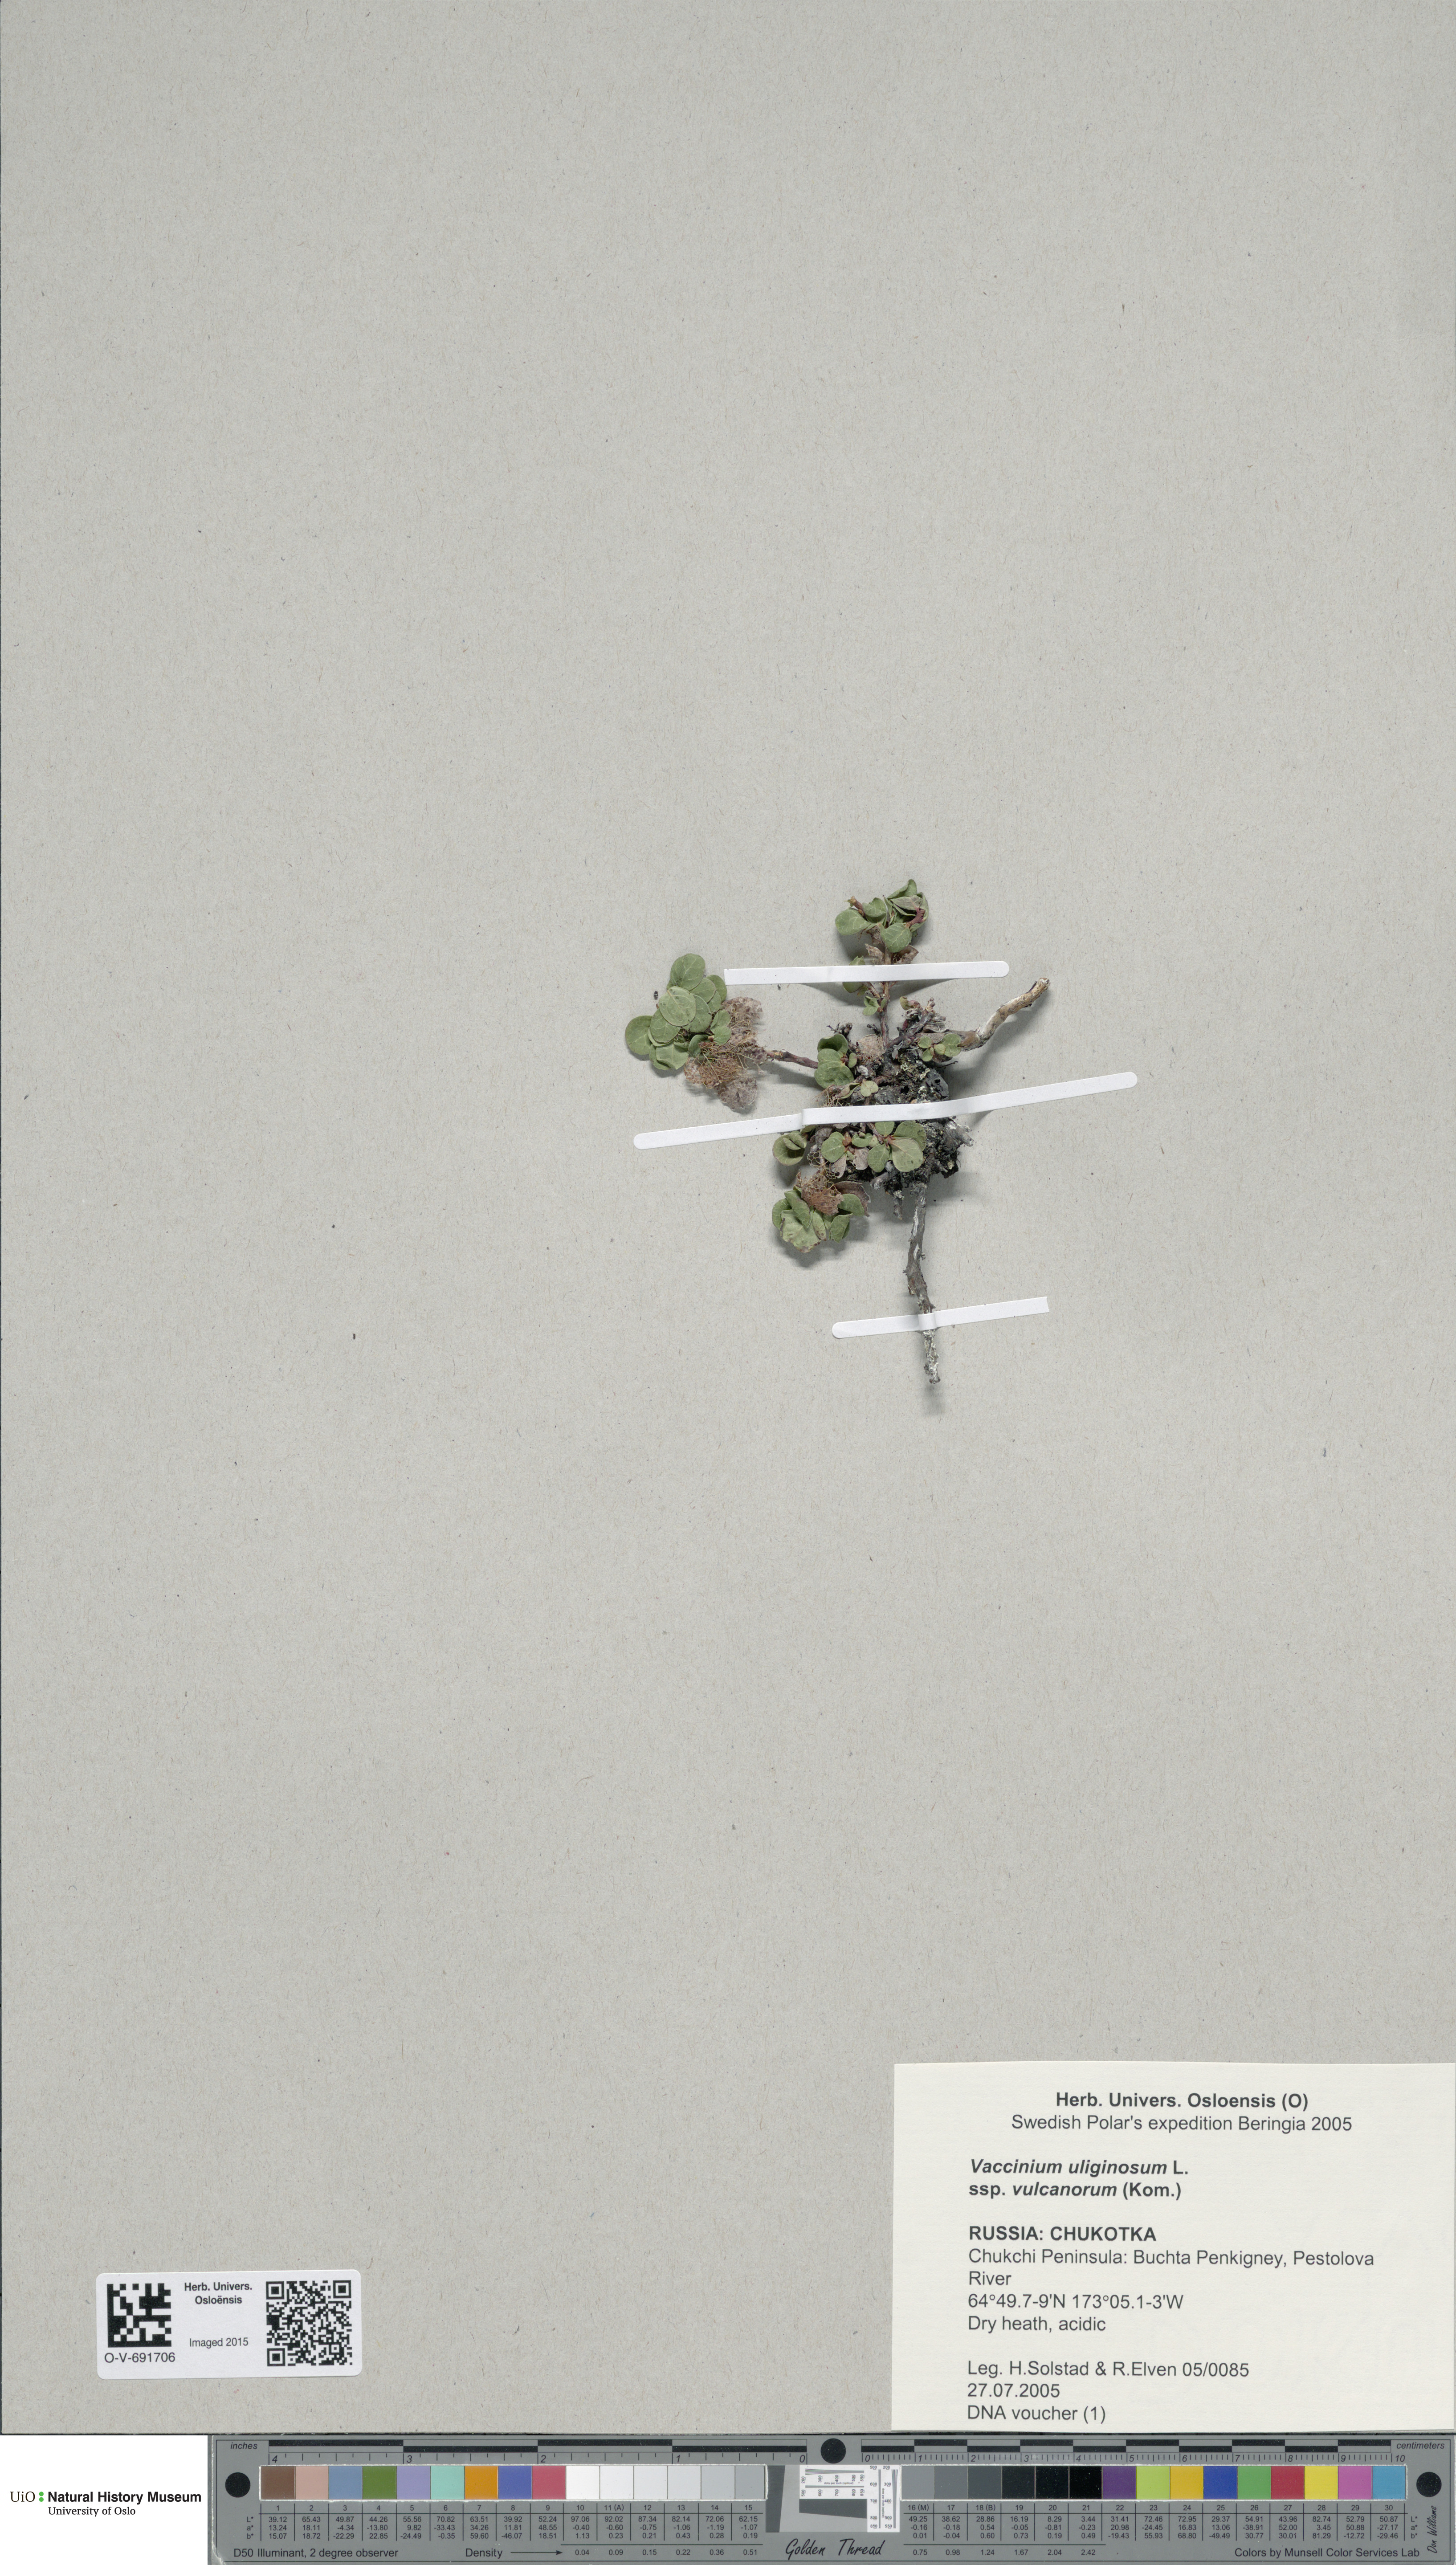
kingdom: Plantae
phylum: Tracheophyta
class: Magnoliopsida
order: Ericales
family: Ericaceae
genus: Vaccinium
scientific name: Vaccinium uliginosum
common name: Bog bilberry
